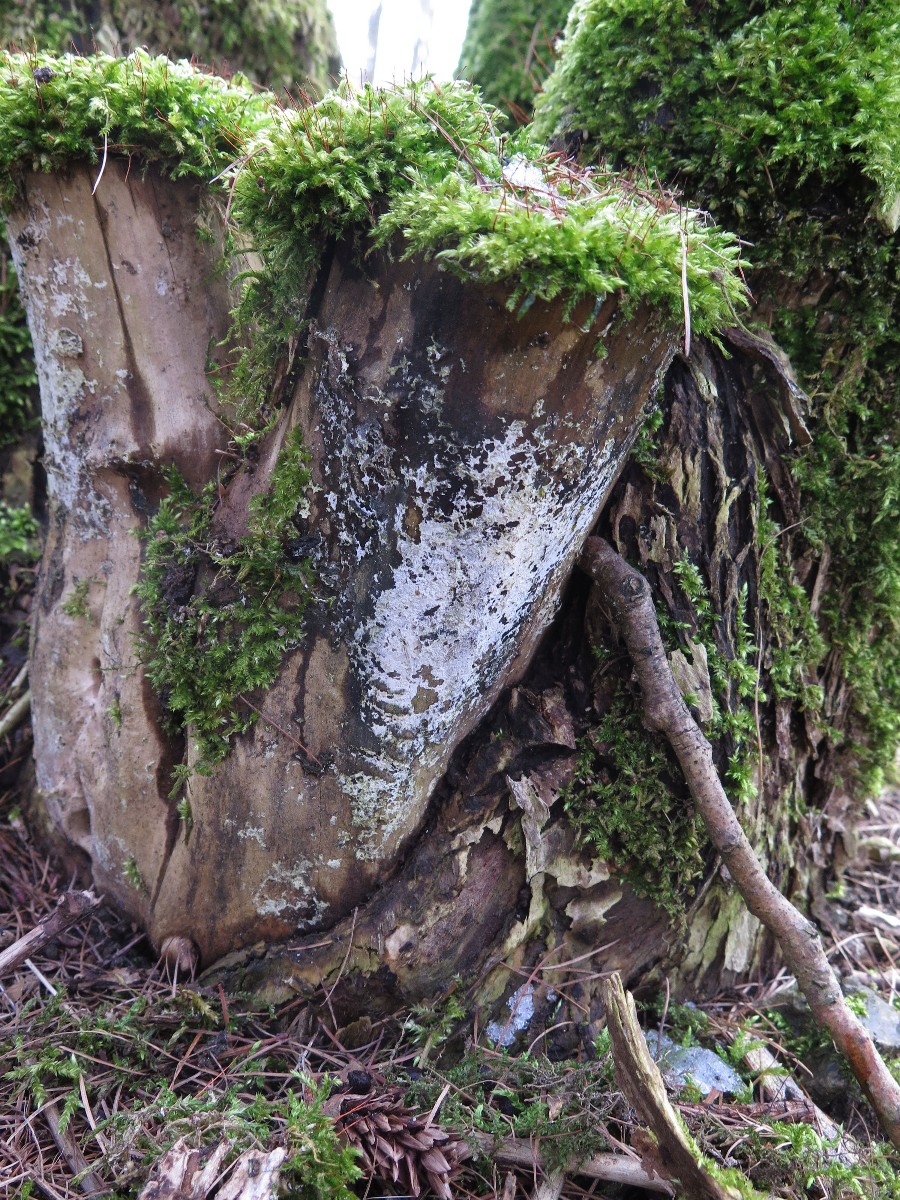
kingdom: Fungi
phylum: Basidiomycota
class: Agaricomycetes
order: Corticiales
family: Corticiaceae
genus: Lyomyces
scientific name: Lyomyces sambuci
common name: almindelig hyldehinde
